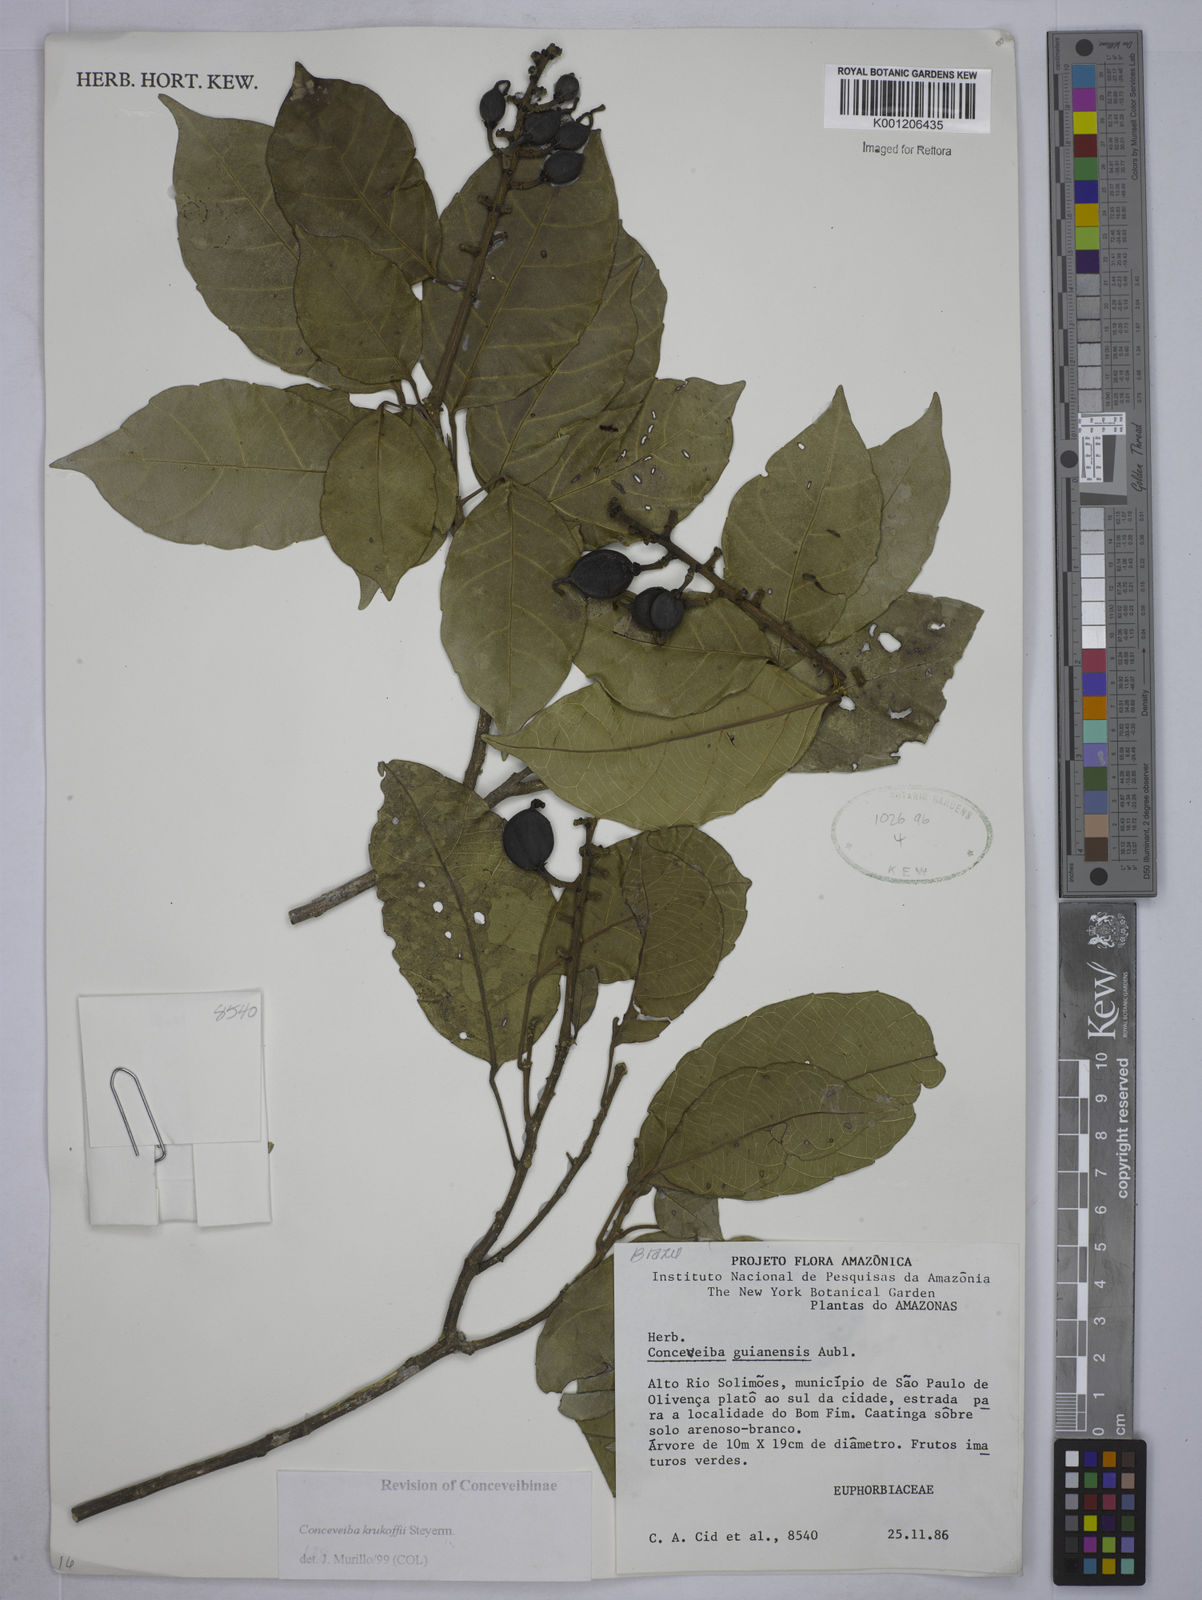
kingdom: Plantae
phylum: Tracheophyta
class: Magnoliopsida
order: Malpighiales
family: Euphorbiaceae
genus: Conceveiba
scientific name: Conceveiba krukoffii
